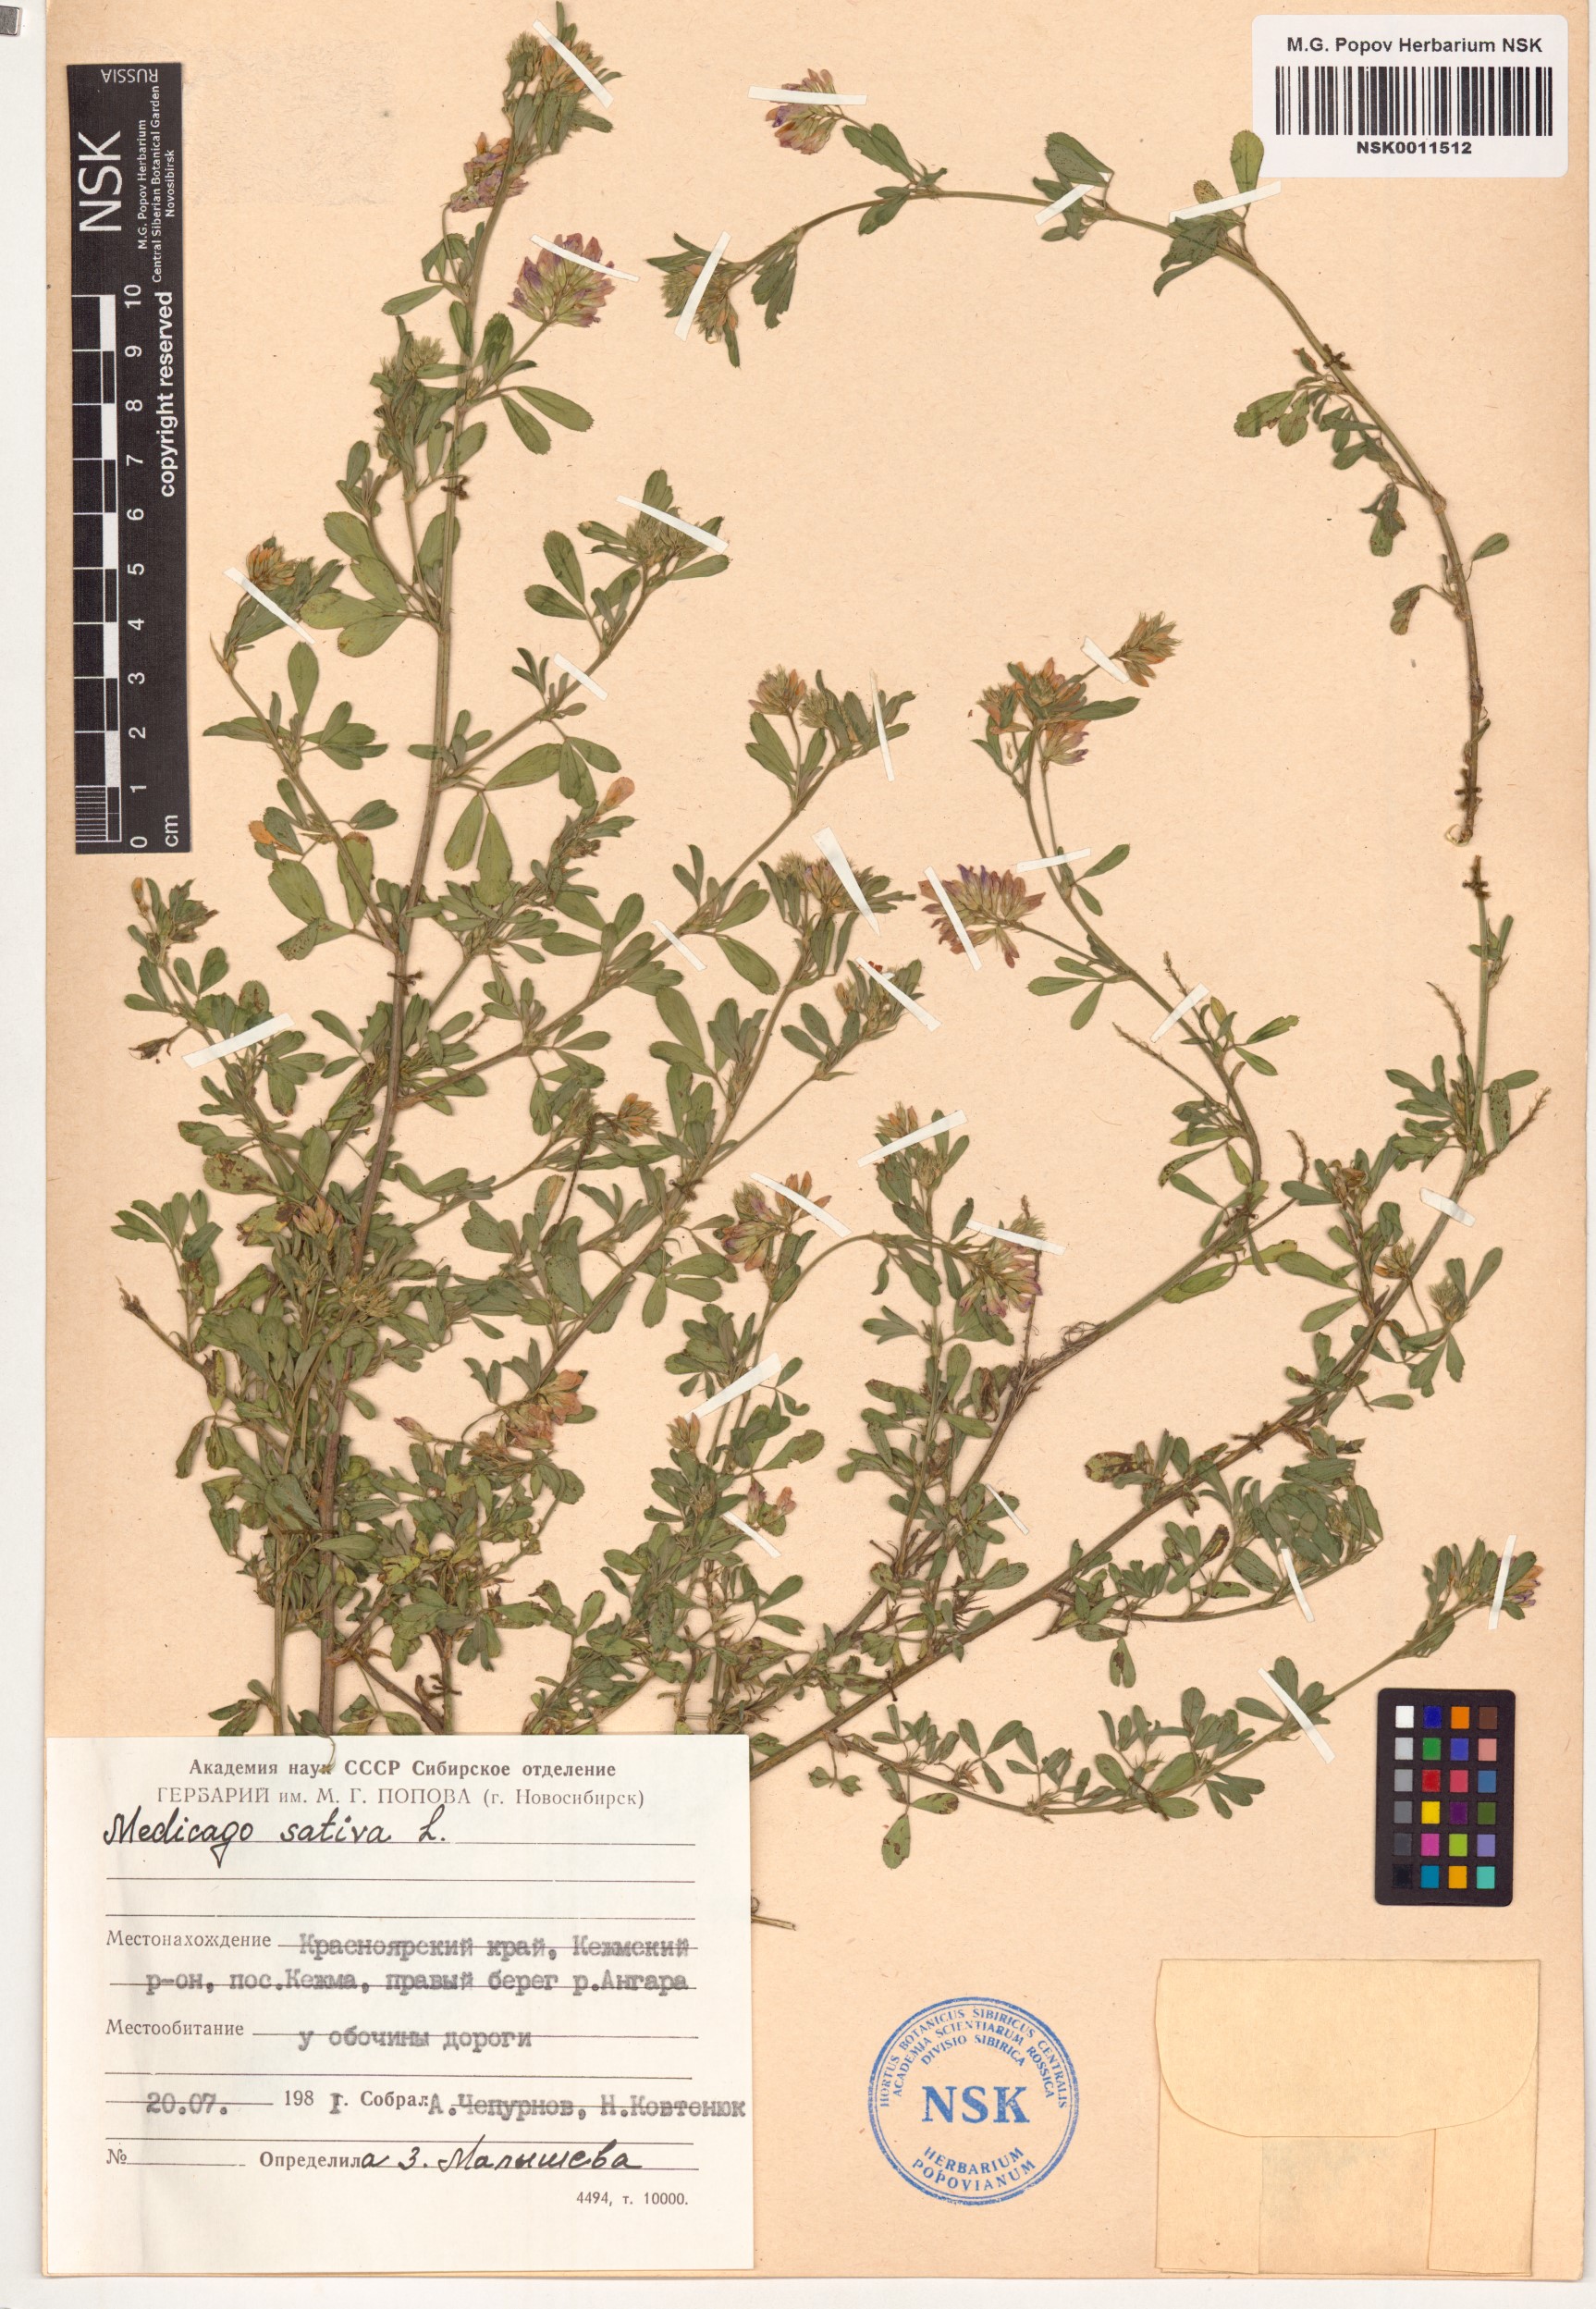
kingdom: Plantae
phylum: Tracheophyta
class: Magnoliopsida
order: Fabales
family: Fabaceae
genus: Medicago
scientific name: Medicago sativa
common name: Alfalfa
